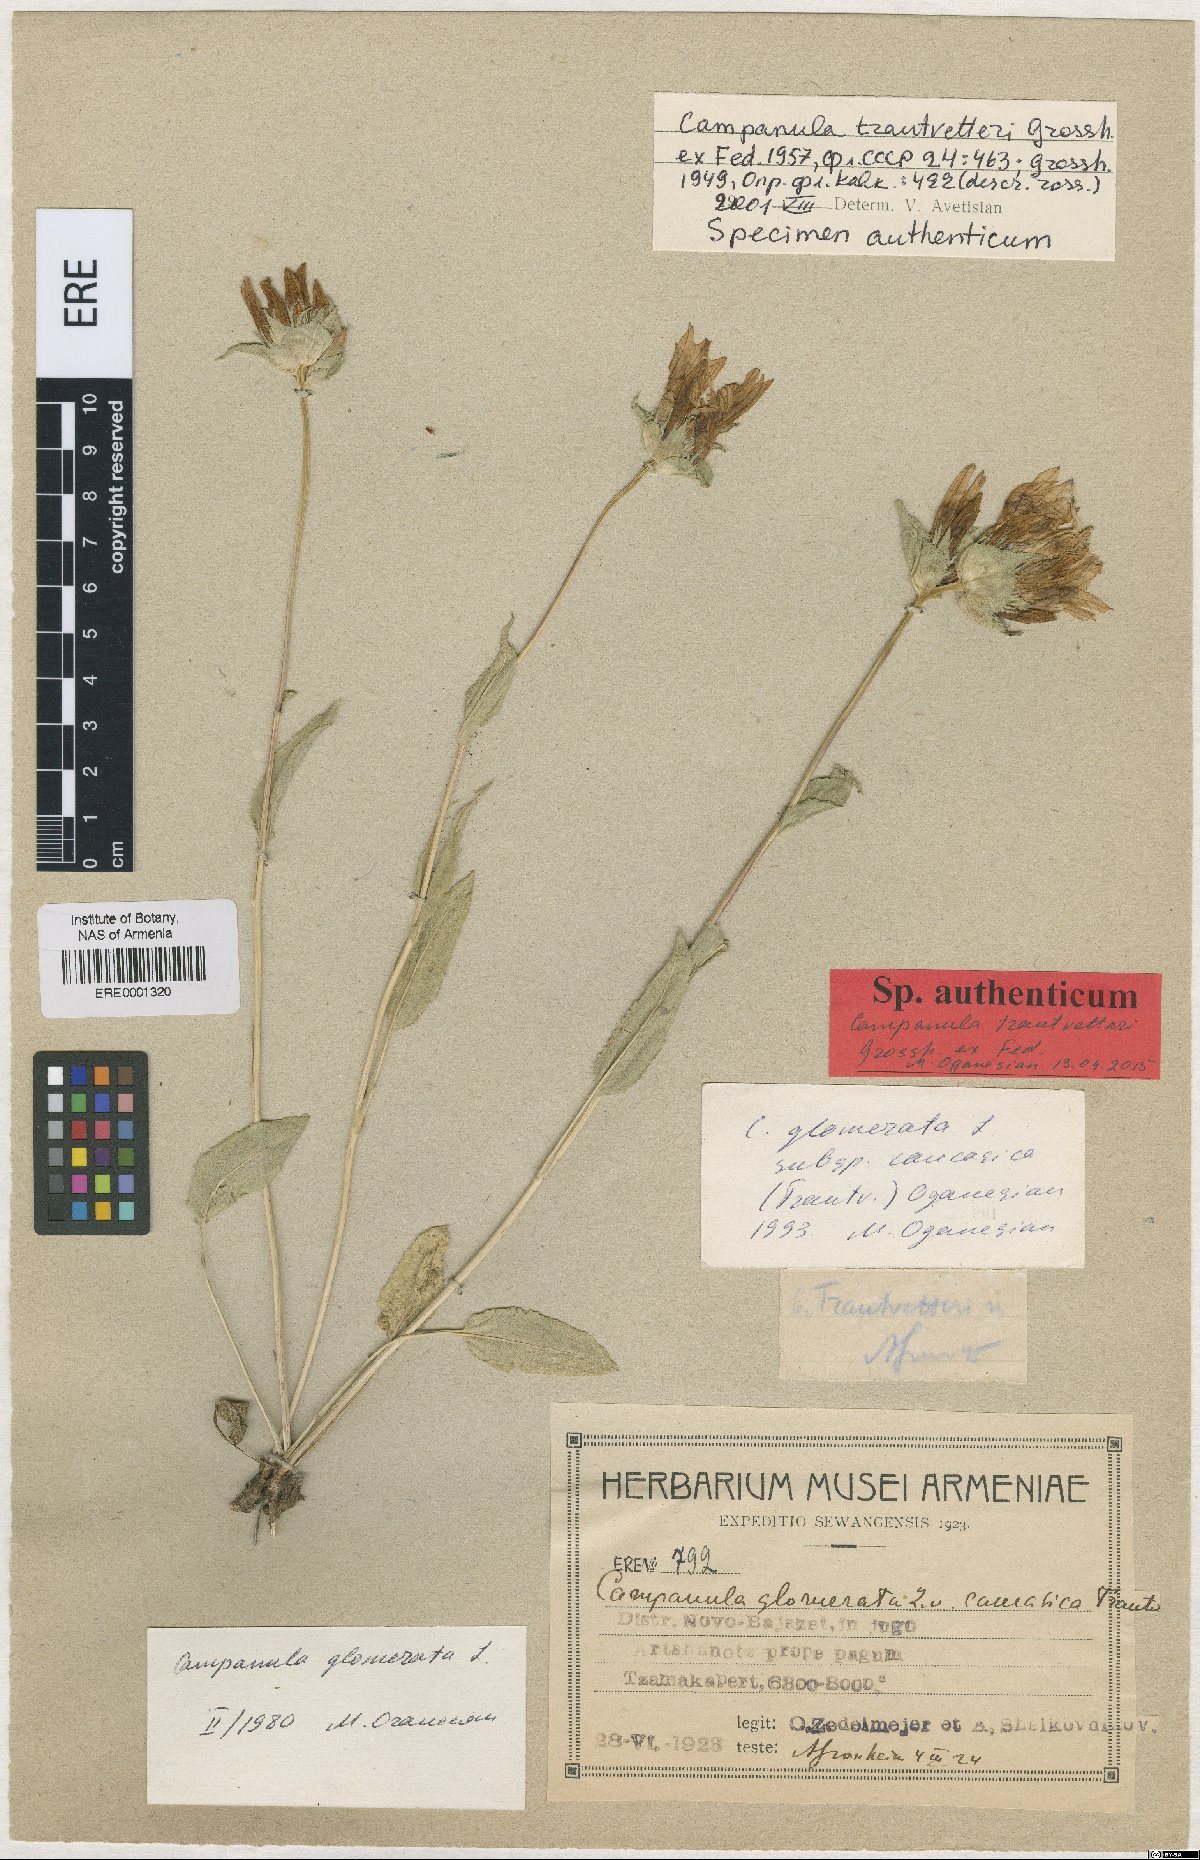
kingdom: Plantae
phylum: Tracheophyta
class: Magnoliopsida
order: Asterales
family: Campanulaceae
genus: Campanula
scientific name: Campanula glomerata
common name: Clustered bellflower
